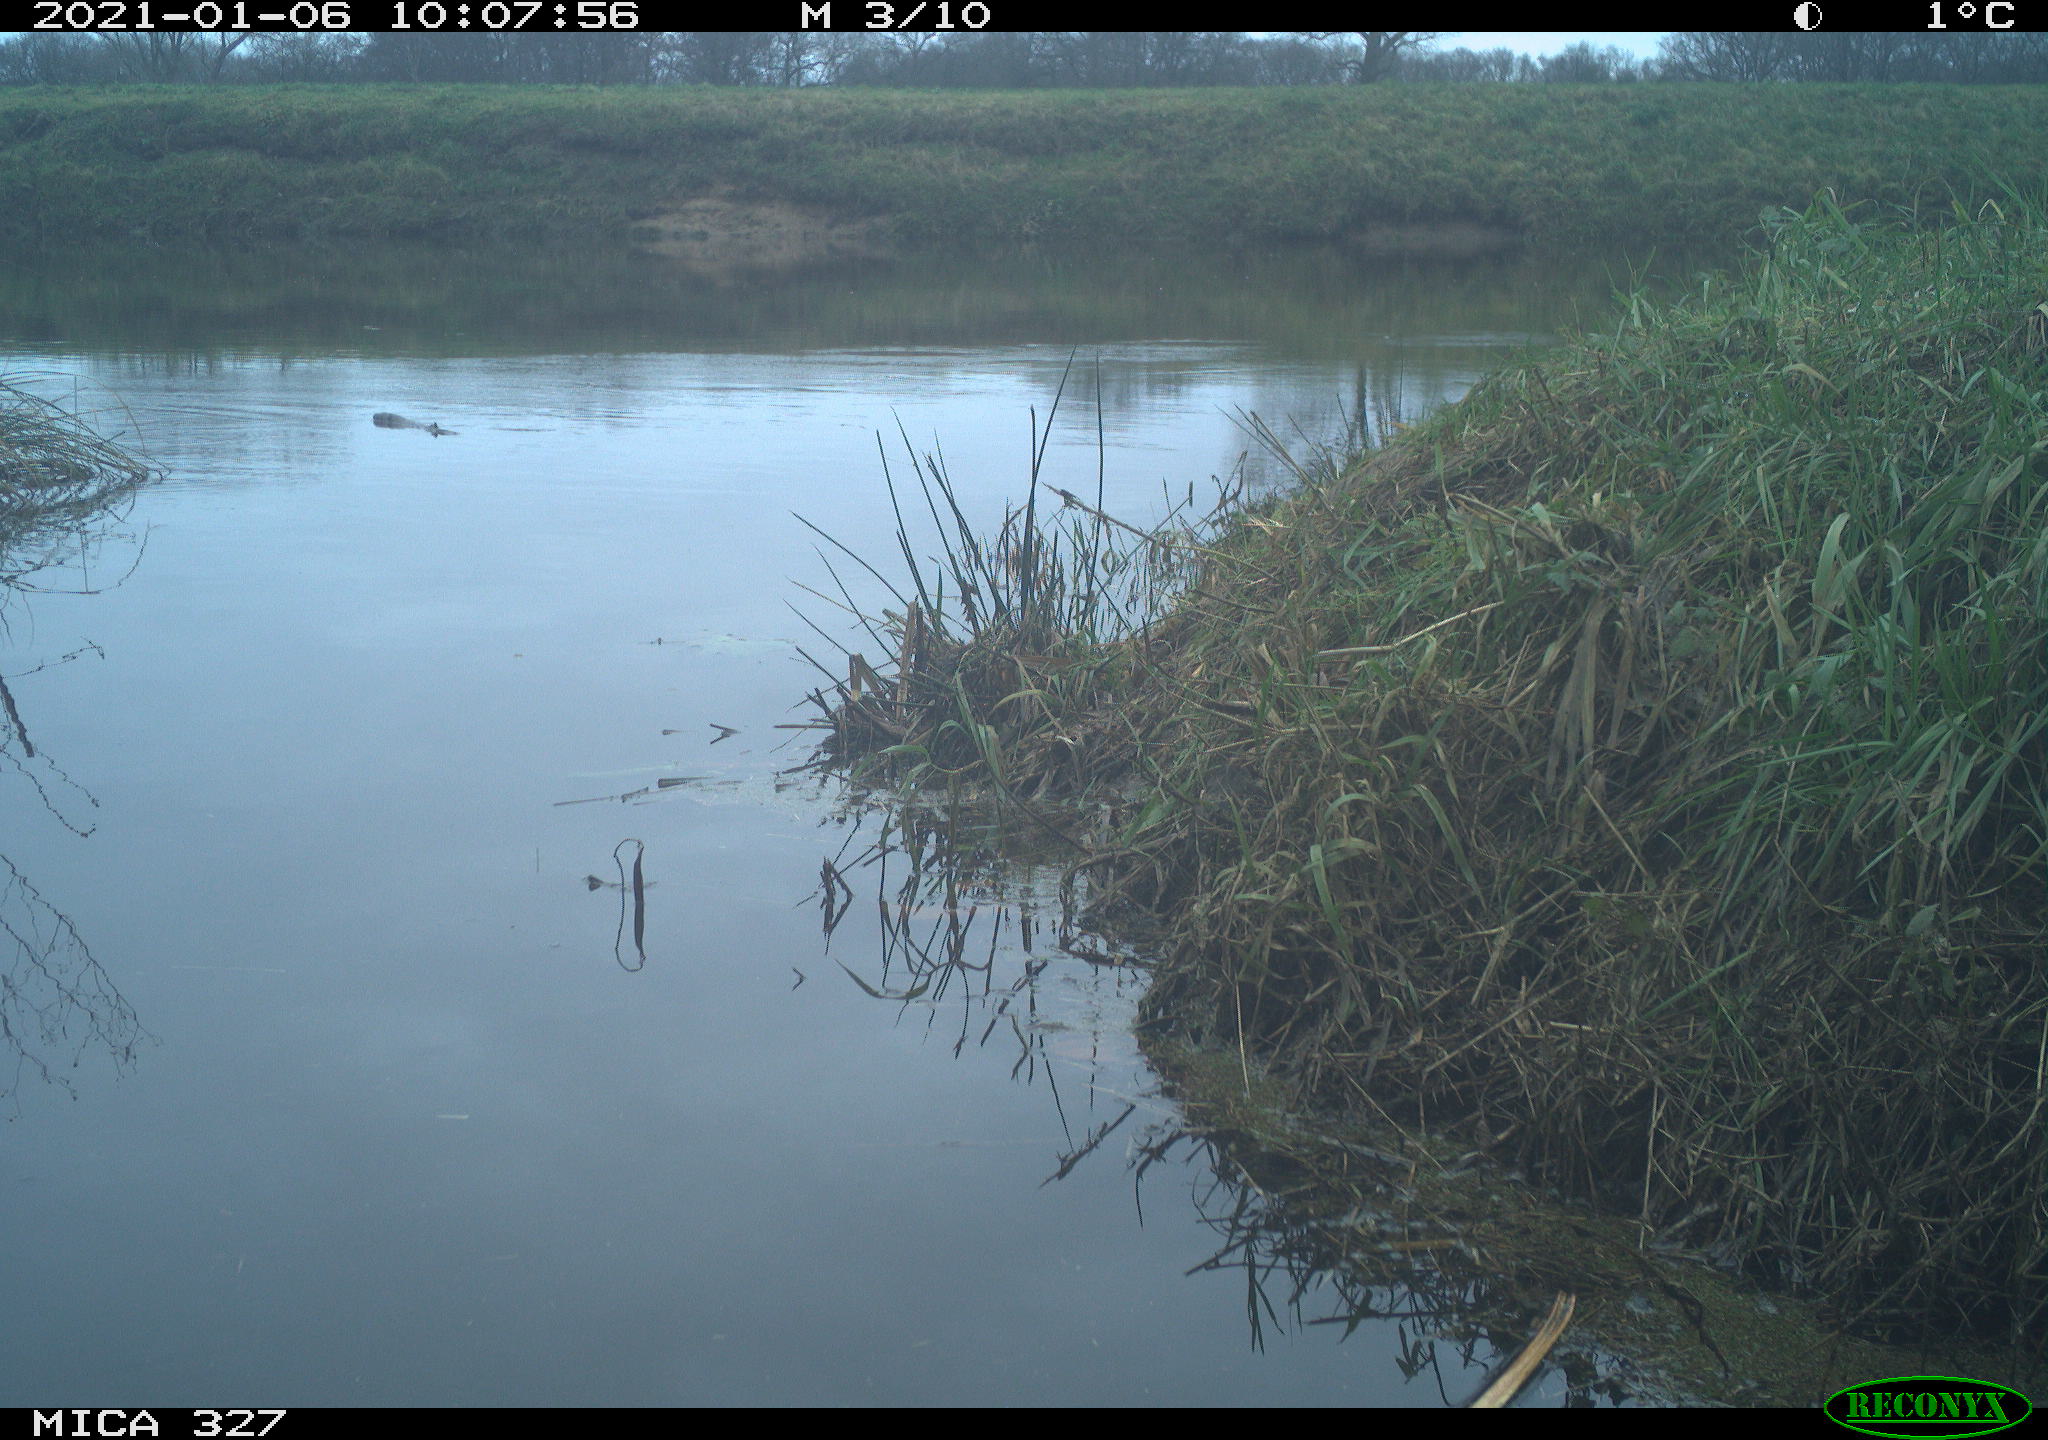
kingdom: Animalia
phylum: Chordata
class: Aves
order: Pelecaniformes
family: Ardeidae
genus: Ardea
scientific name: Ardea cinerea
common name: Grey heron
